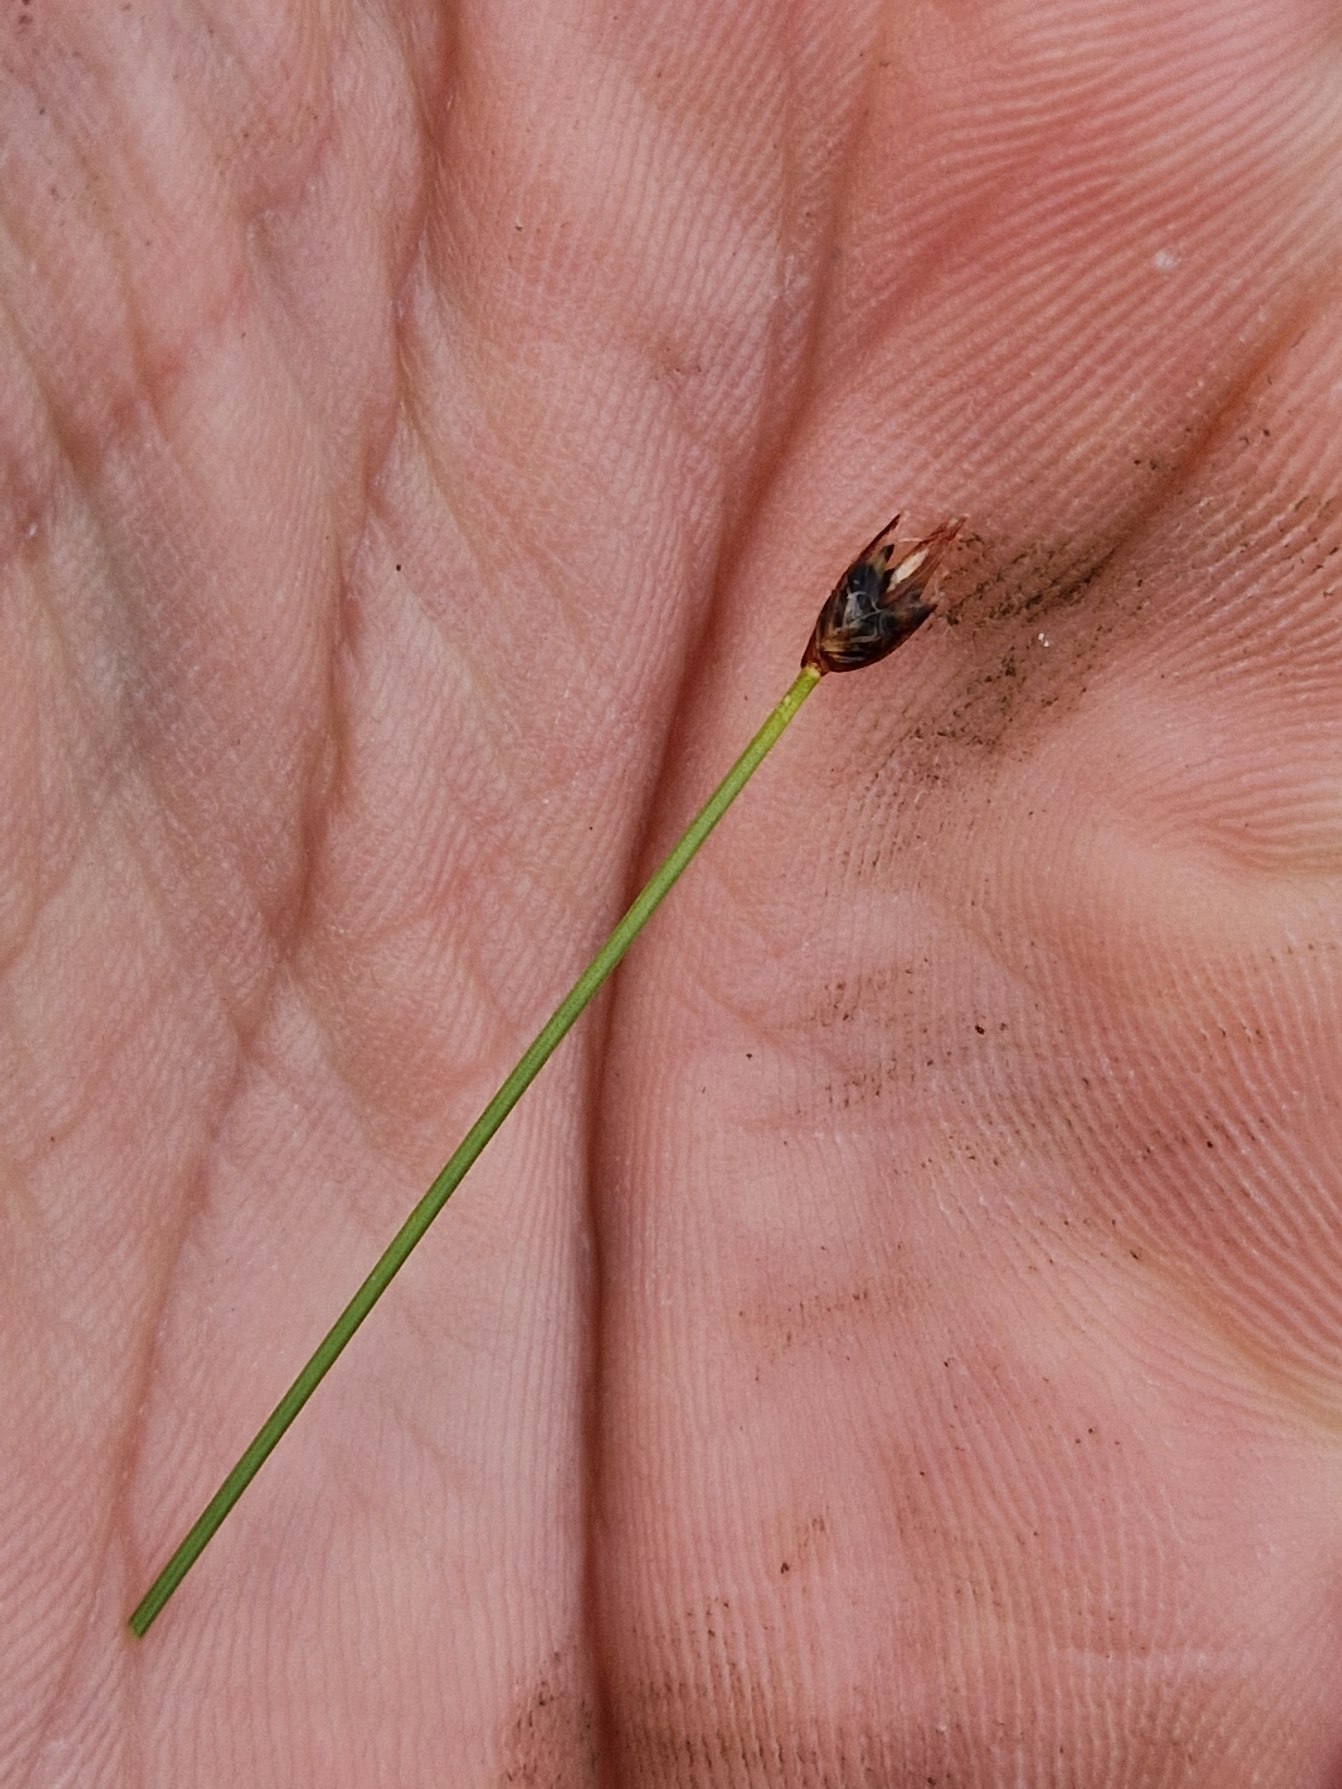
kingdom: Plantae
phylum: Tracheophyta
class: Liliopsida
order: Poales
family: Cyperaceae
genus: Eleocharis
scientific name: Eleocharis quinqueflora
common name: Fåblomstret kogleaks
